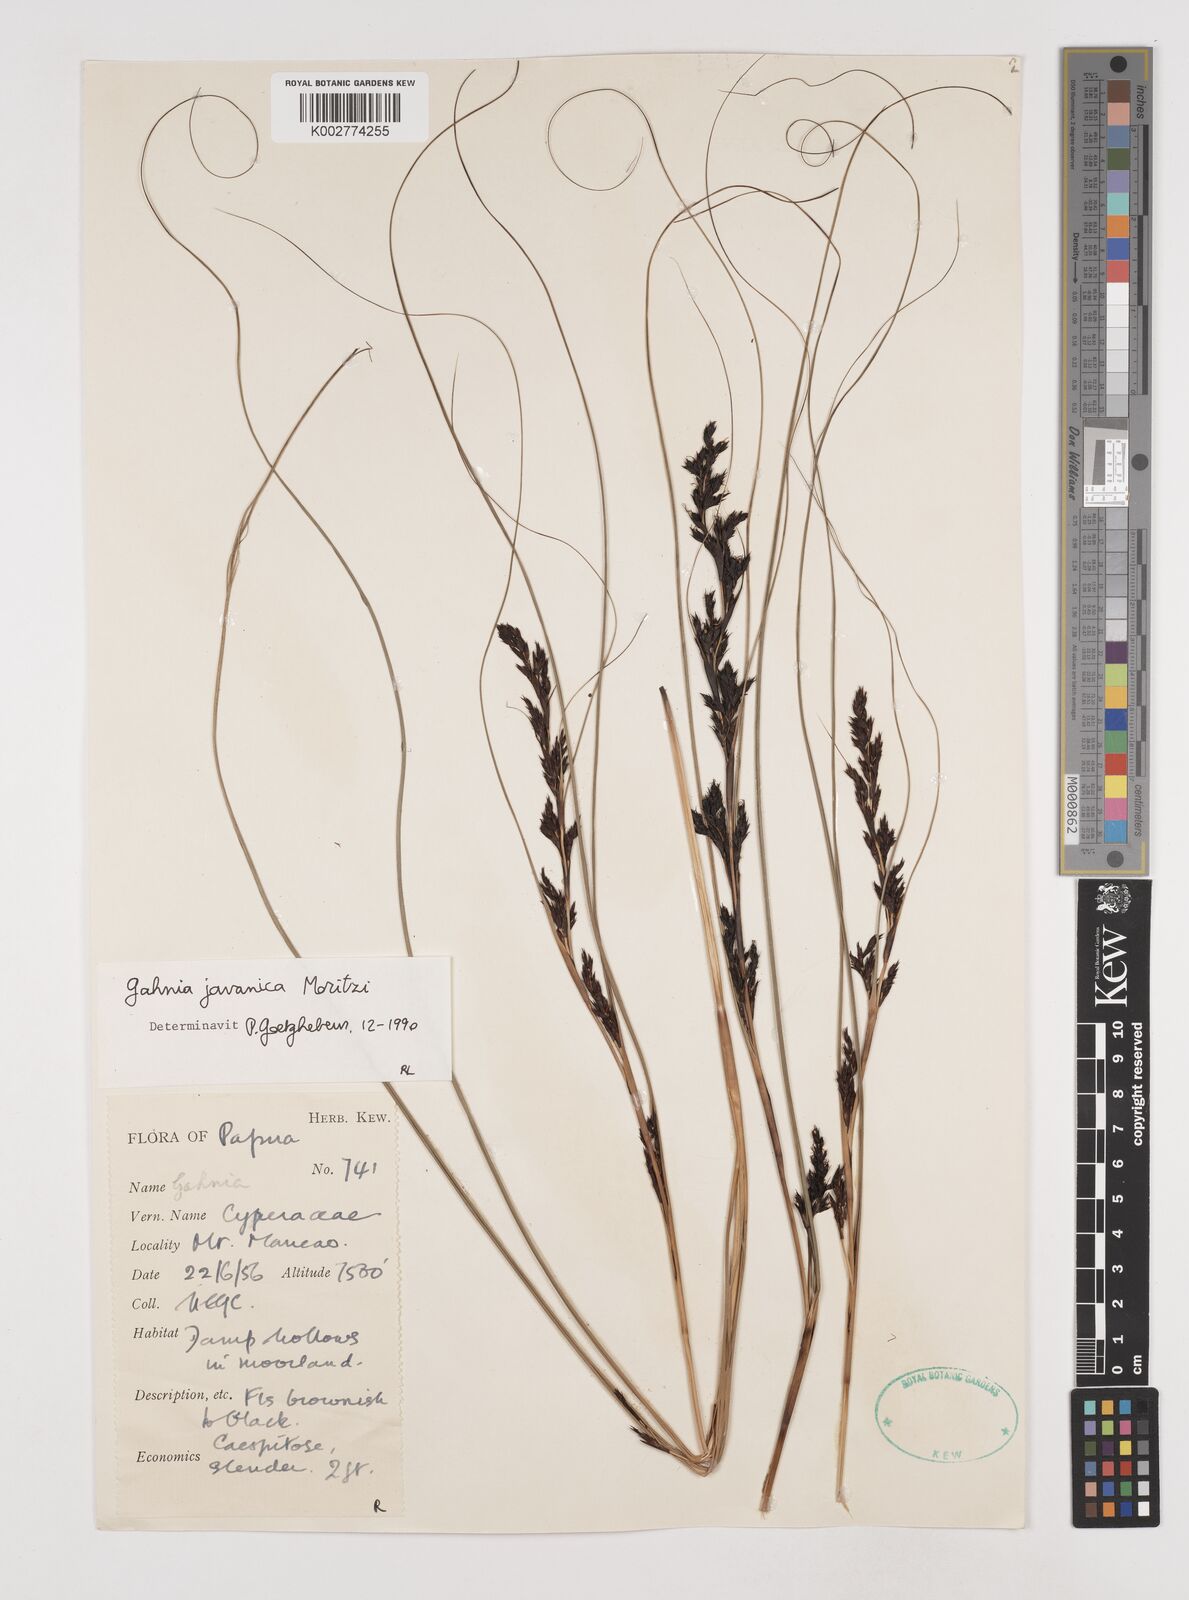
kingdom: Plantae
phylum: Tracheophyta
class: Liliopsida
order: Poales
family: Cyperaceae
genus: Gahnia
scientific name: Gahnia javanica
